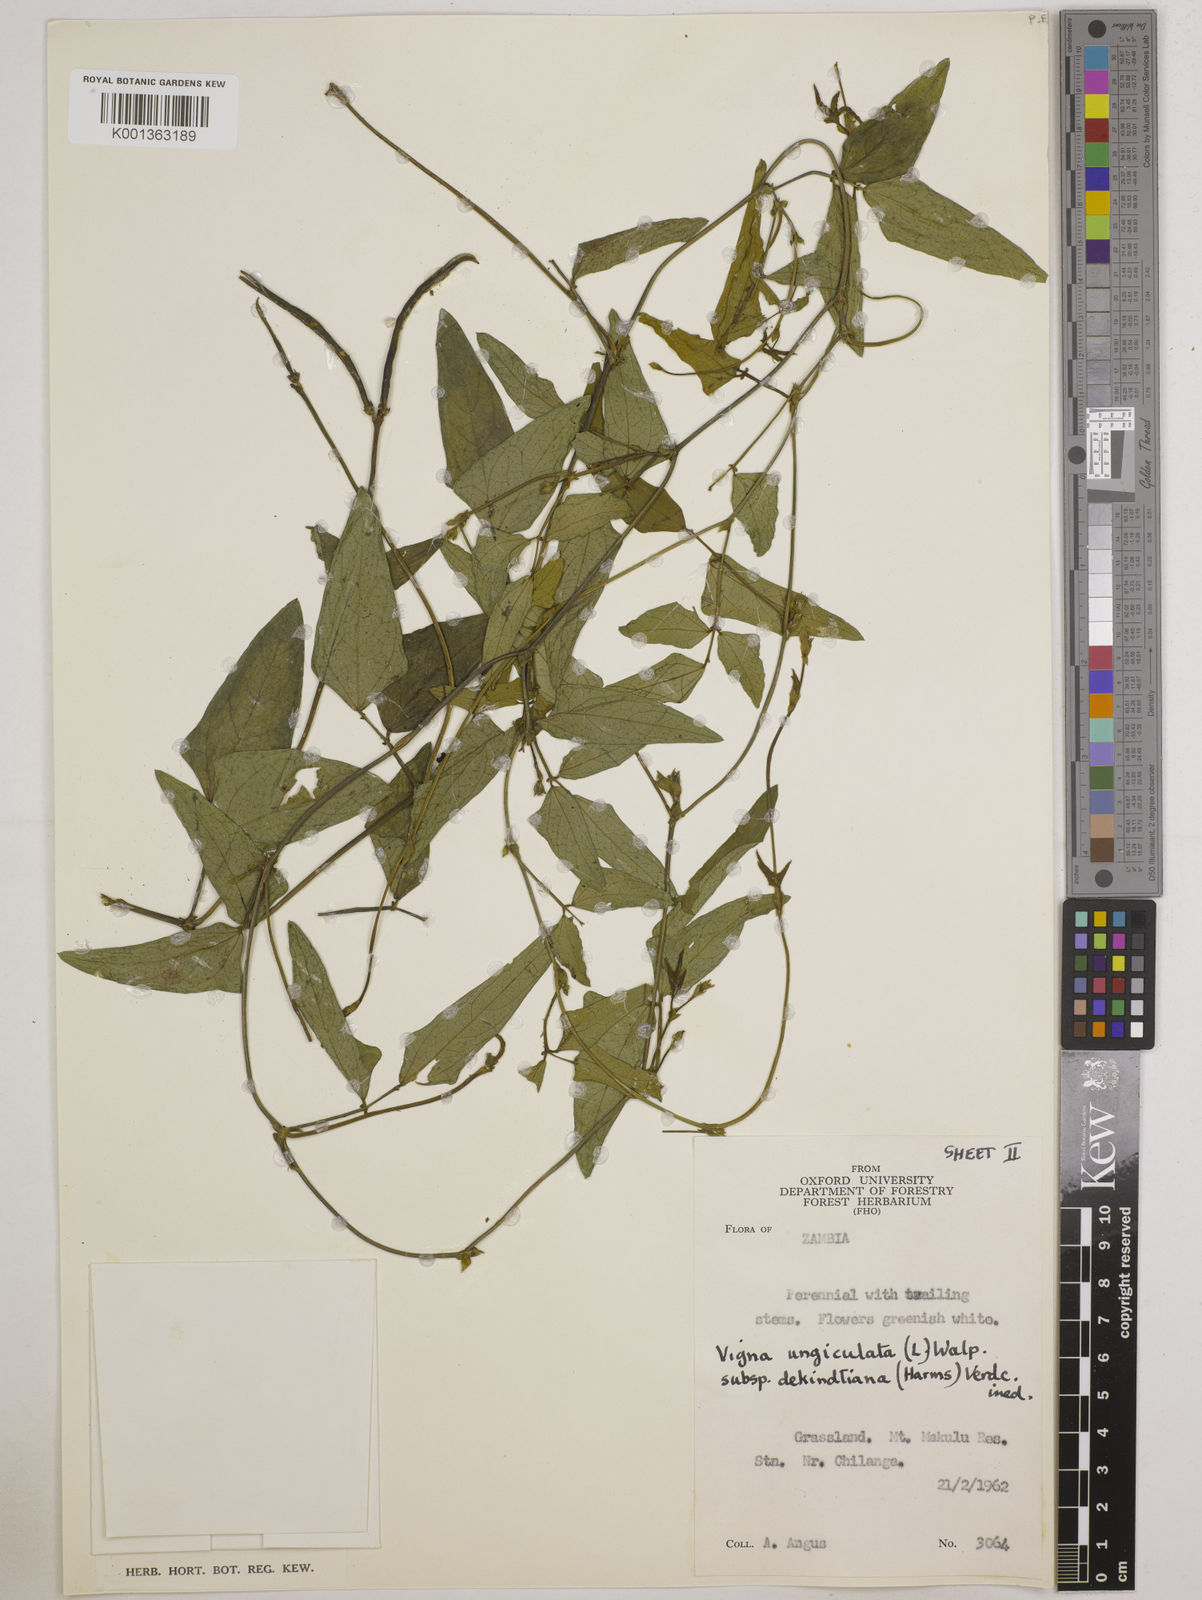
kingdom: Plantae
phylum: Tracheophyta
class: Magnoliopsida
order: Fabales
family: Fabaceae
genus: Vigna
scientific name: Vigna unguiculata
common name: Cowpea
